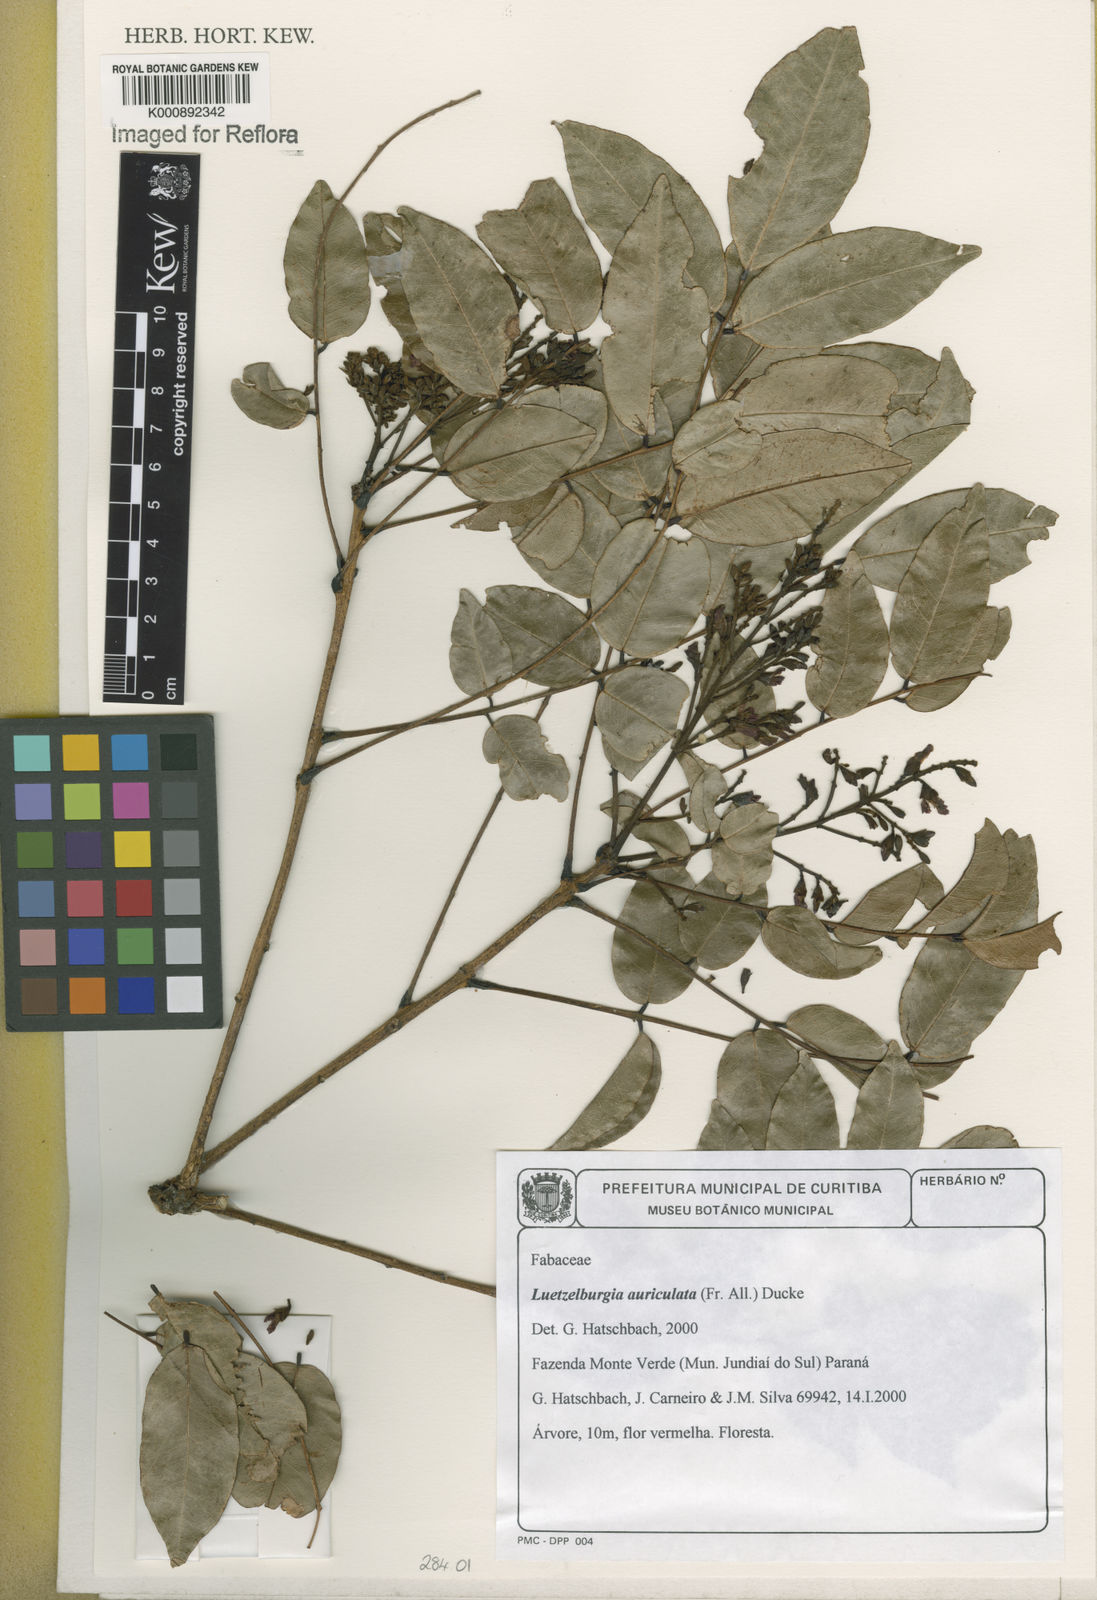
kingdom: Plantae
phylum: Tracheophyta
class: Magnoliopsida
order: Fabales
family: Fabaceae
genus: Luetzelburgia
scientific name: Luetzelburgia
